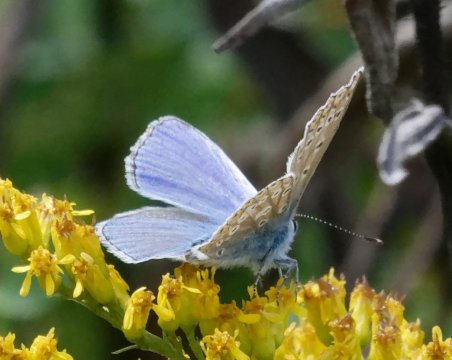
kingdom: Animalia
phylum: Arthropoda
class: Insecta
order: Lepidoptera
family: Lycaenidae
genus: Polyommatus
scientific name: Polyommatus icarus
